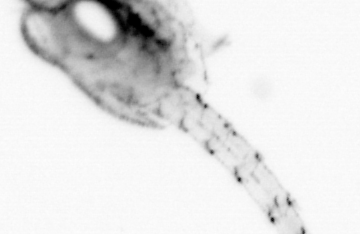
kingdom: Animalia
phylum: Arthropoda
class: Malacostraca
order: Decapoda
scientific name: Decapoda
